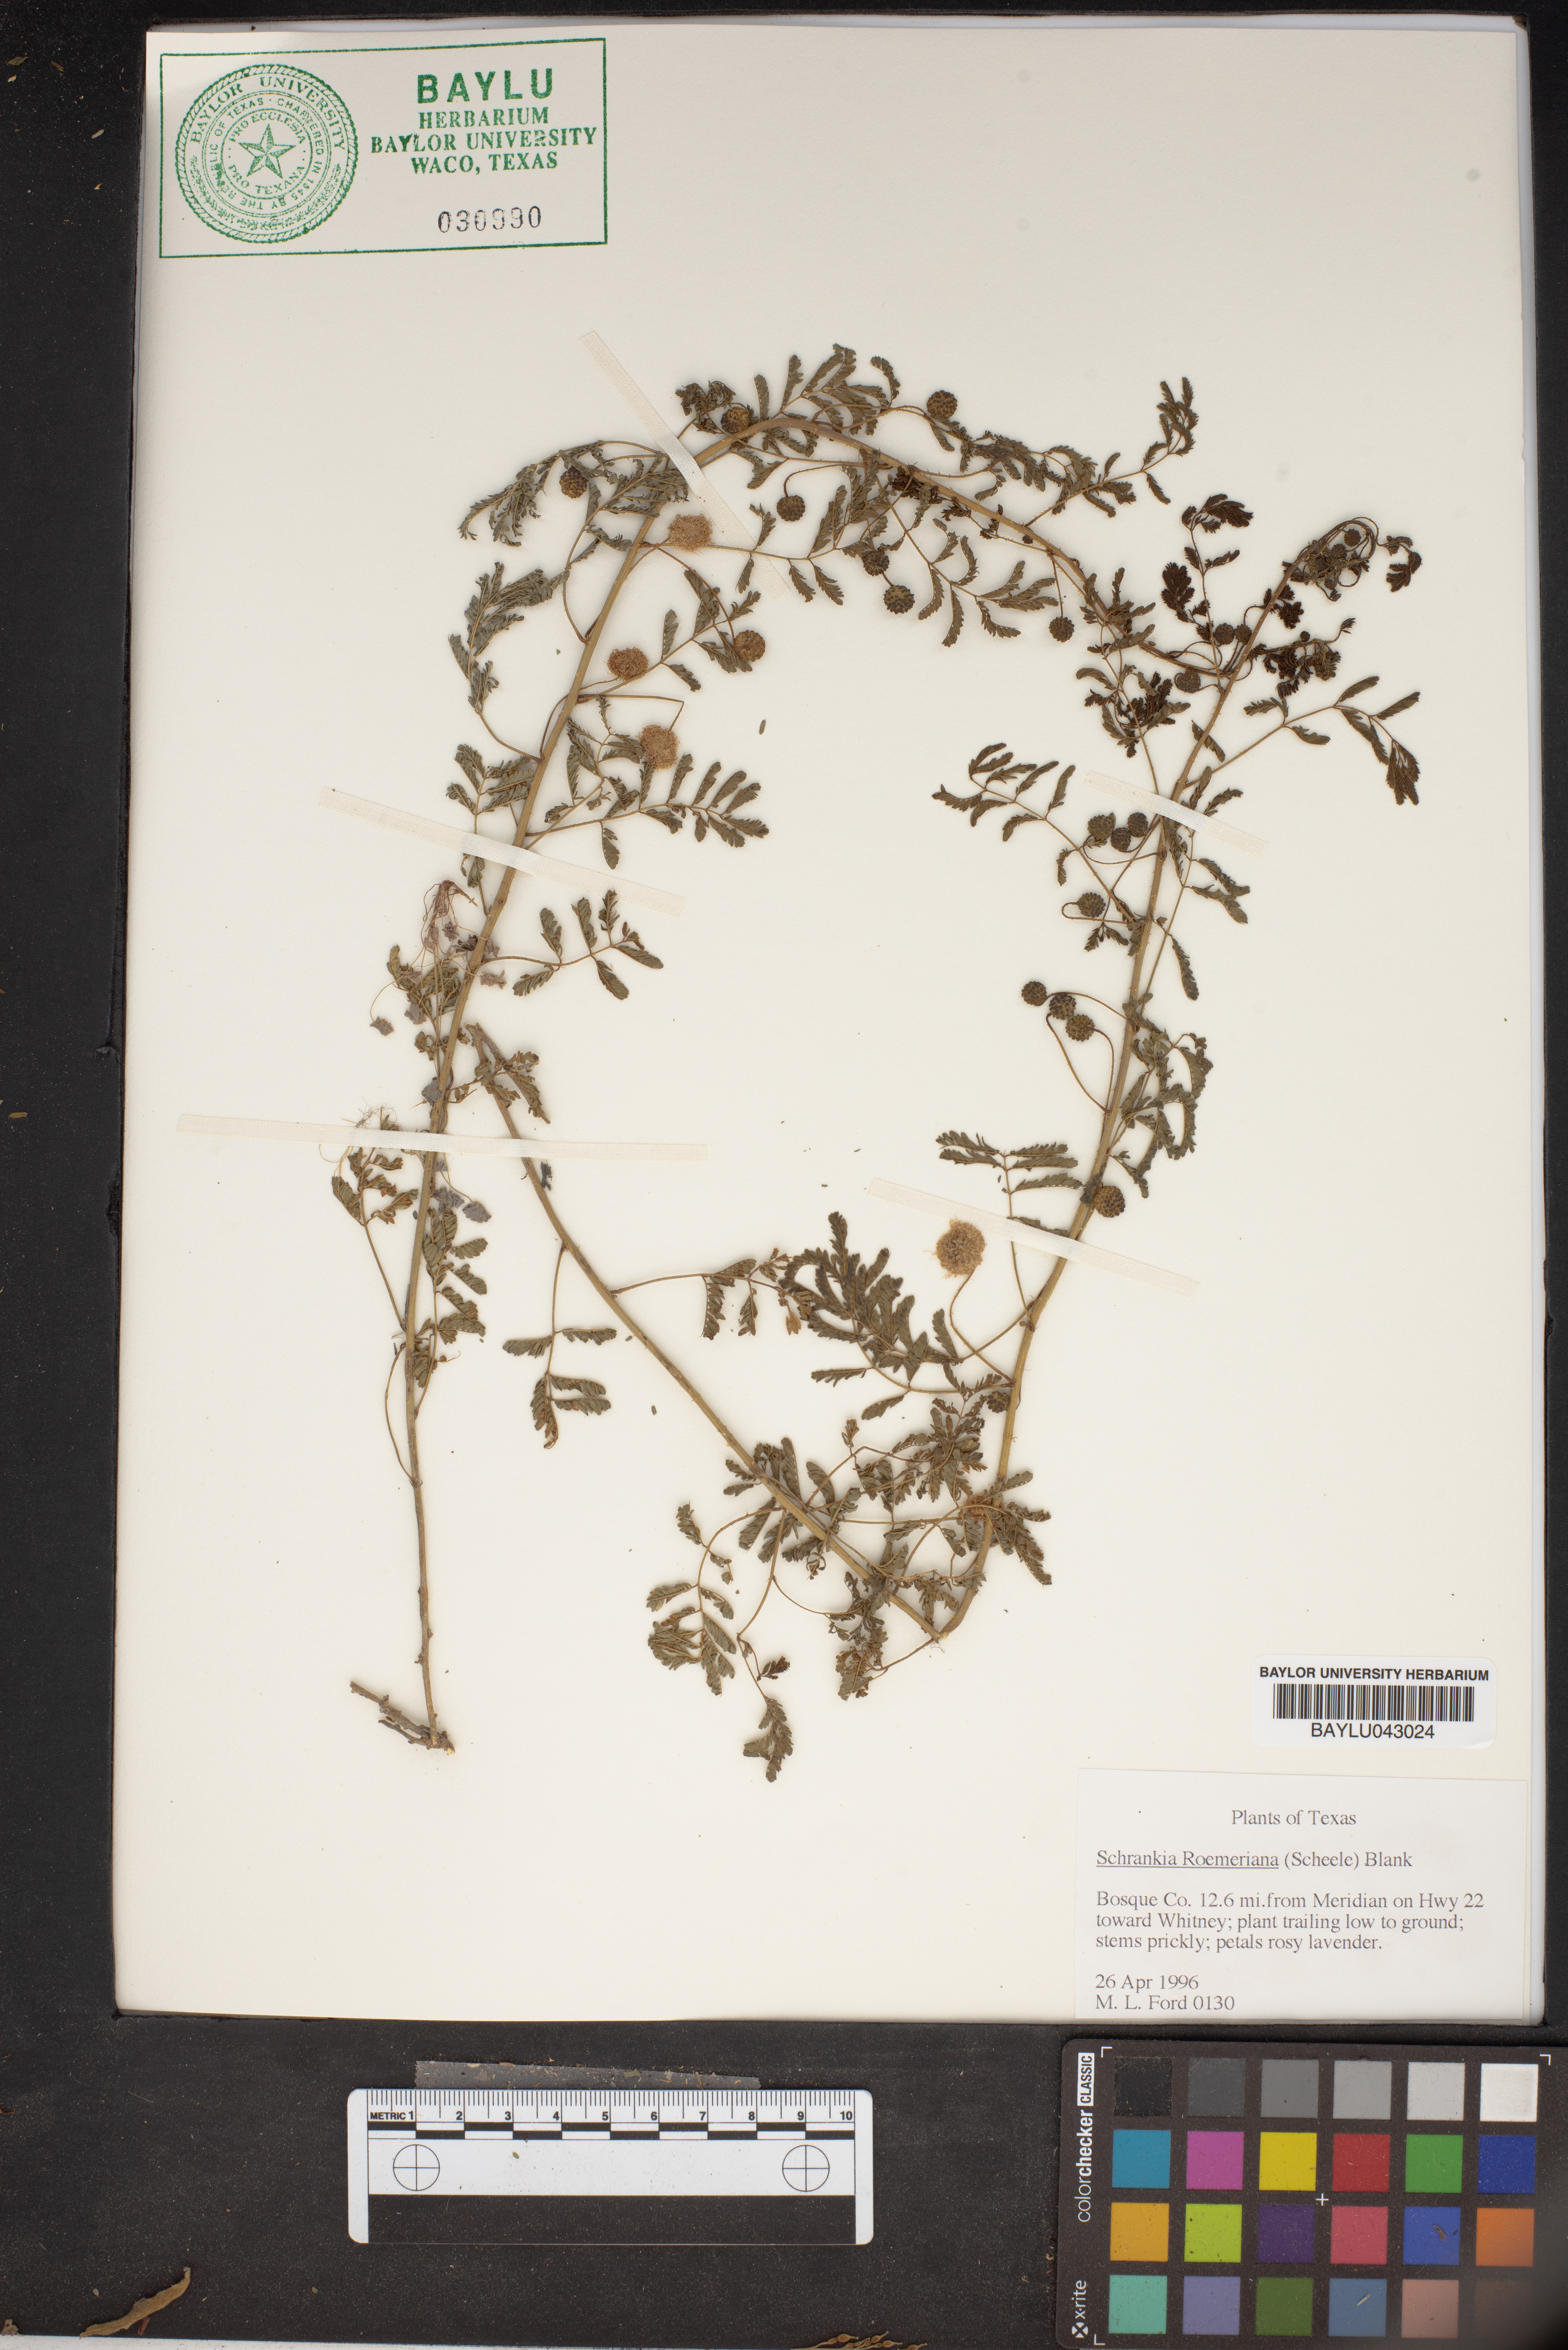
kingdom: Plantae
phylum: Tracheophyta
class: Magnoliopsida
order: Fabales
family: Fabaceae
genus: Mimosa
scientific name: Mimosa quadrivalvis
